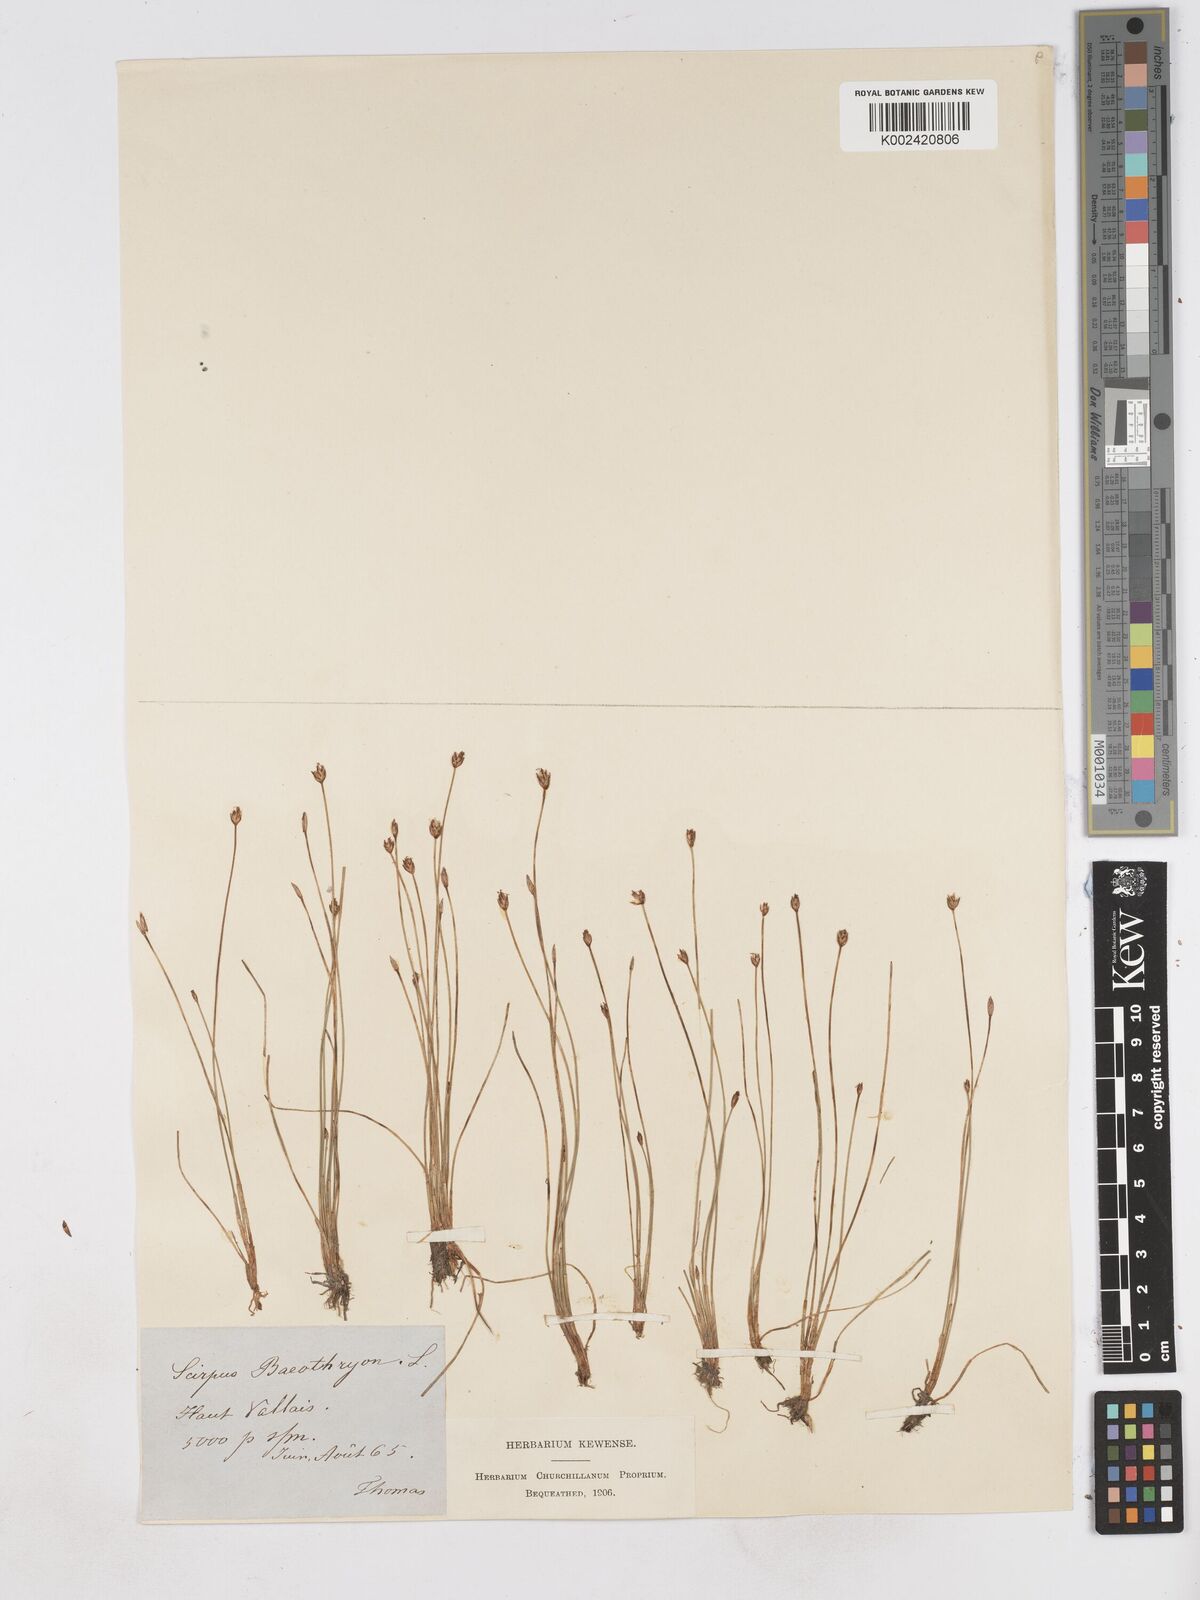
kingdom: Plantae
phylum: Tracheophyta
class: Liliopsida
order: Poales
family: Cyperaceae
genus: Eleocharis
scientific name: Eleocharis quinqueflora
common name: Few-flowered spike-rush
